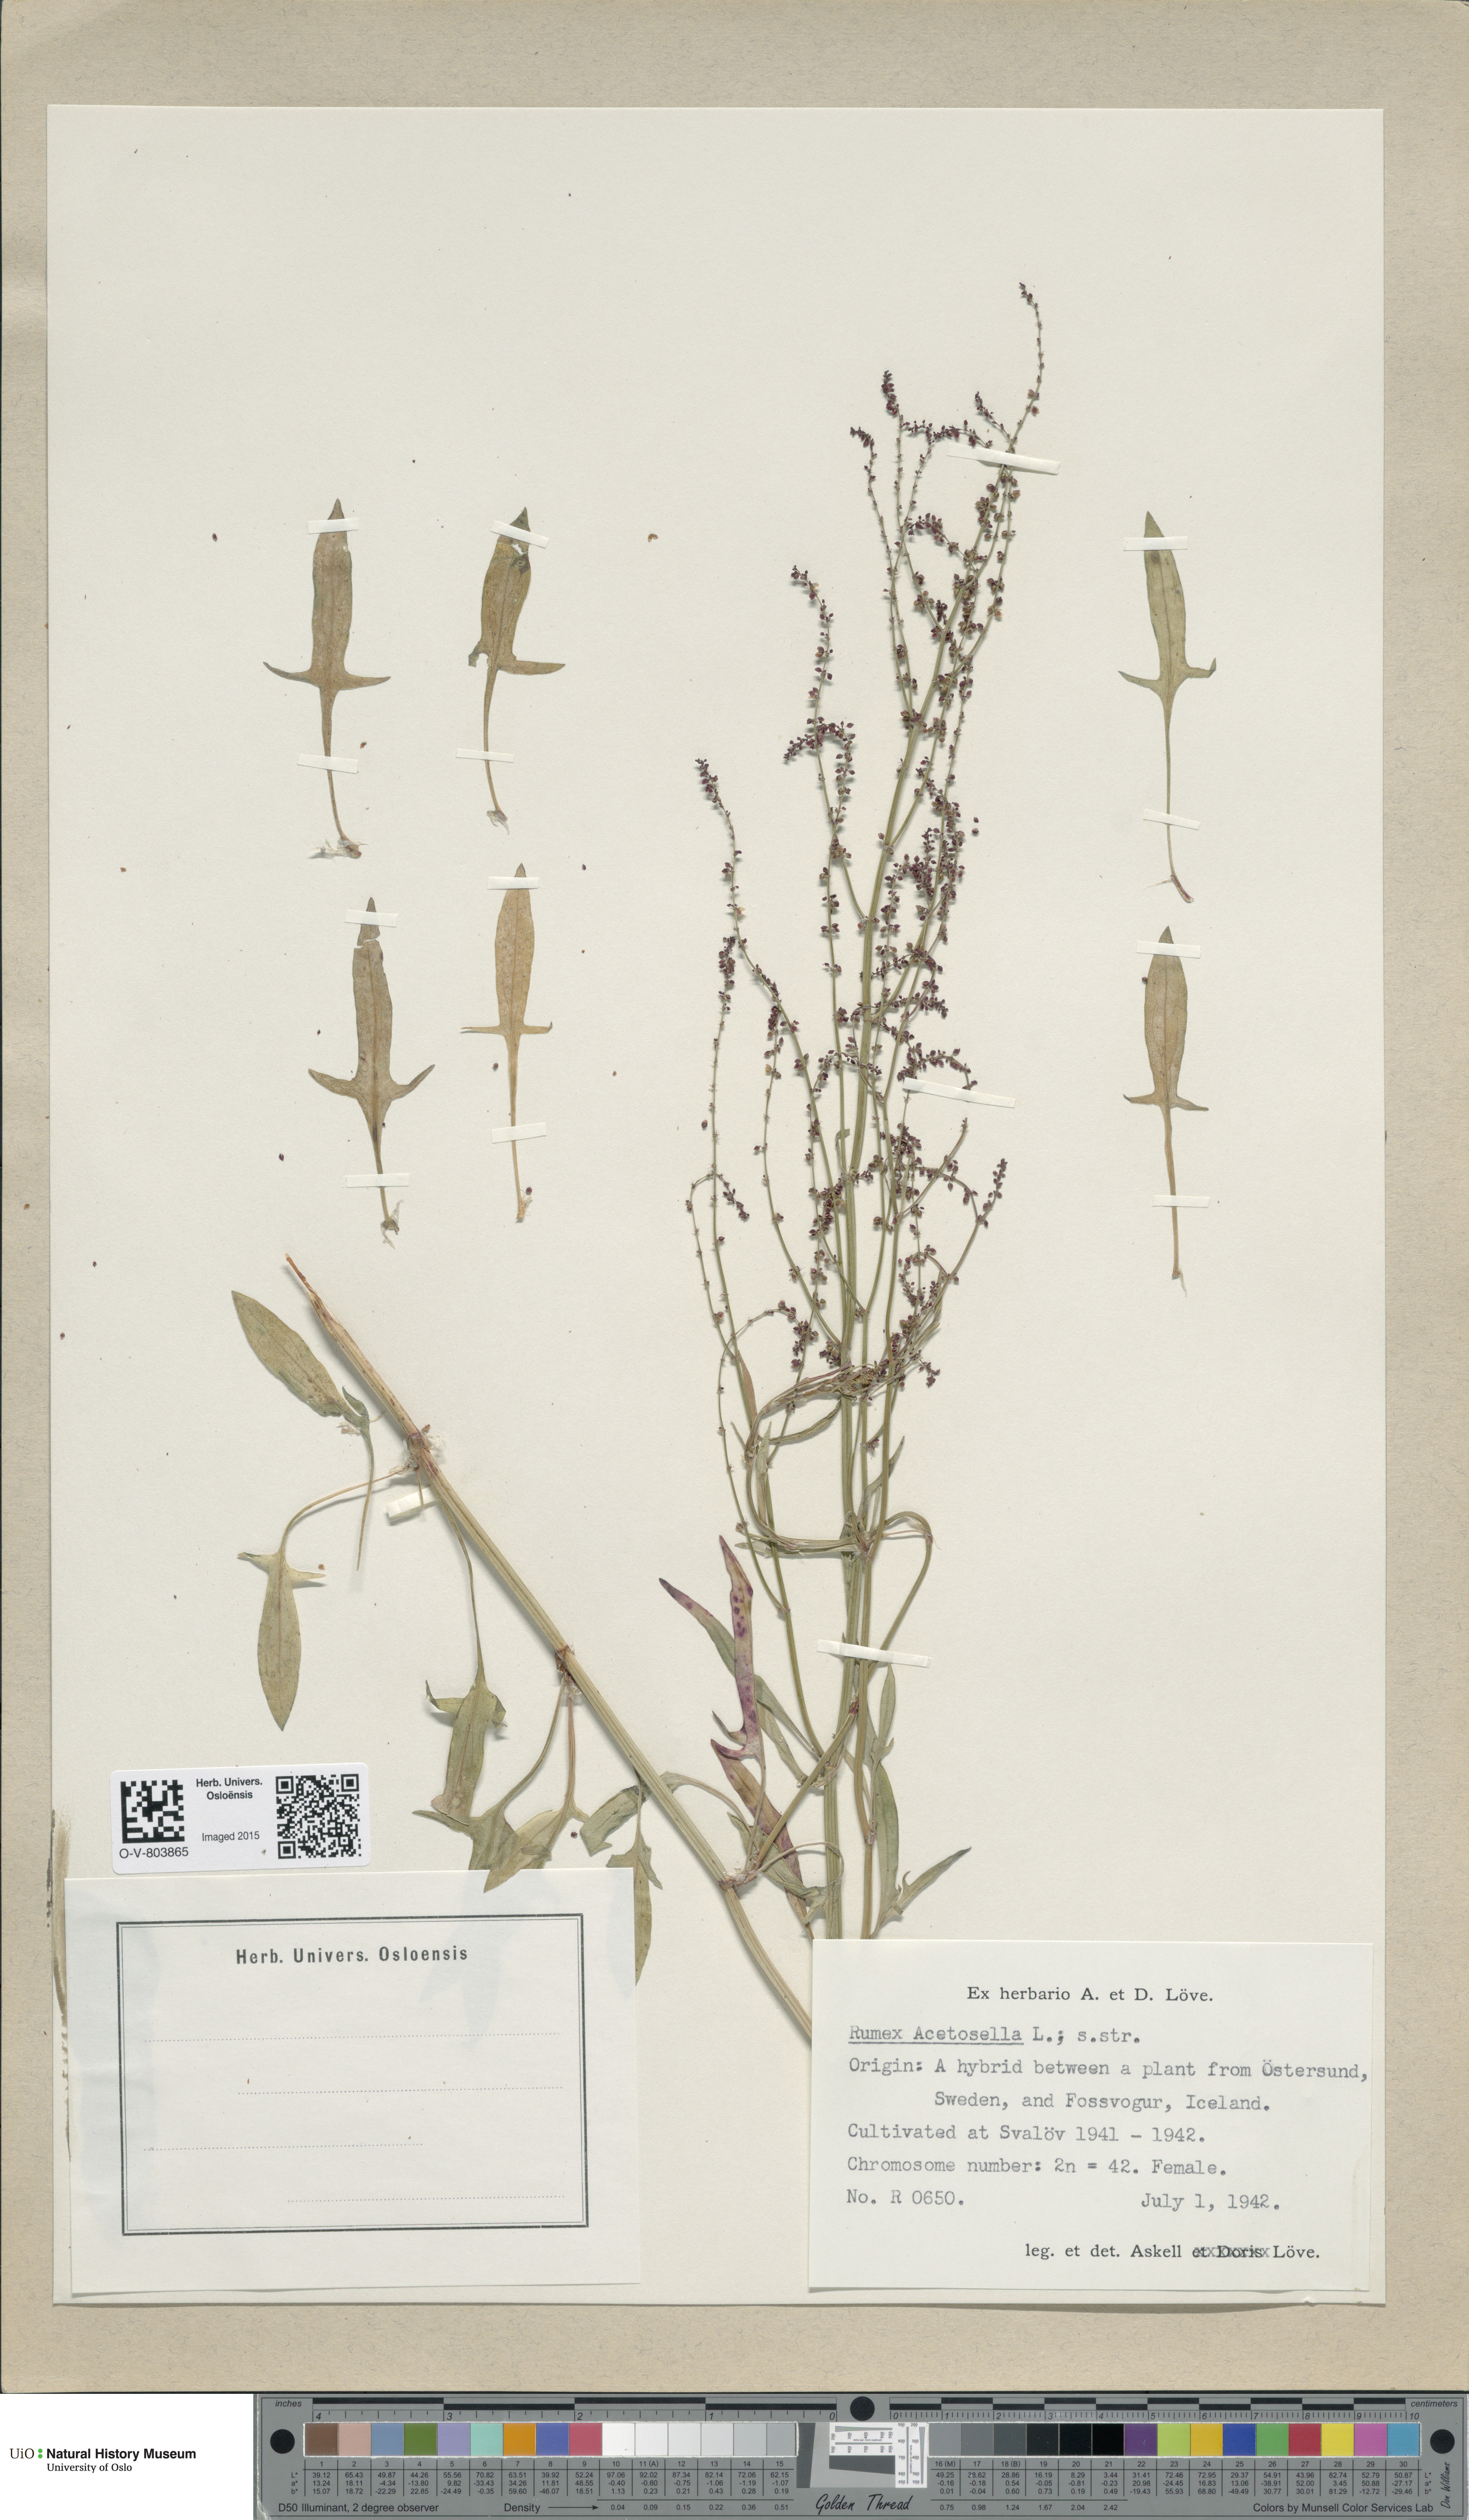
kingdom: Plantae
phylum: Tracheophyta
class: Magnoliopsida
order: Caryophyllales
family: Polygonaceae
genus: Rumex
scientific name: Rumex acetosella
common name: Common sheep sorrel
